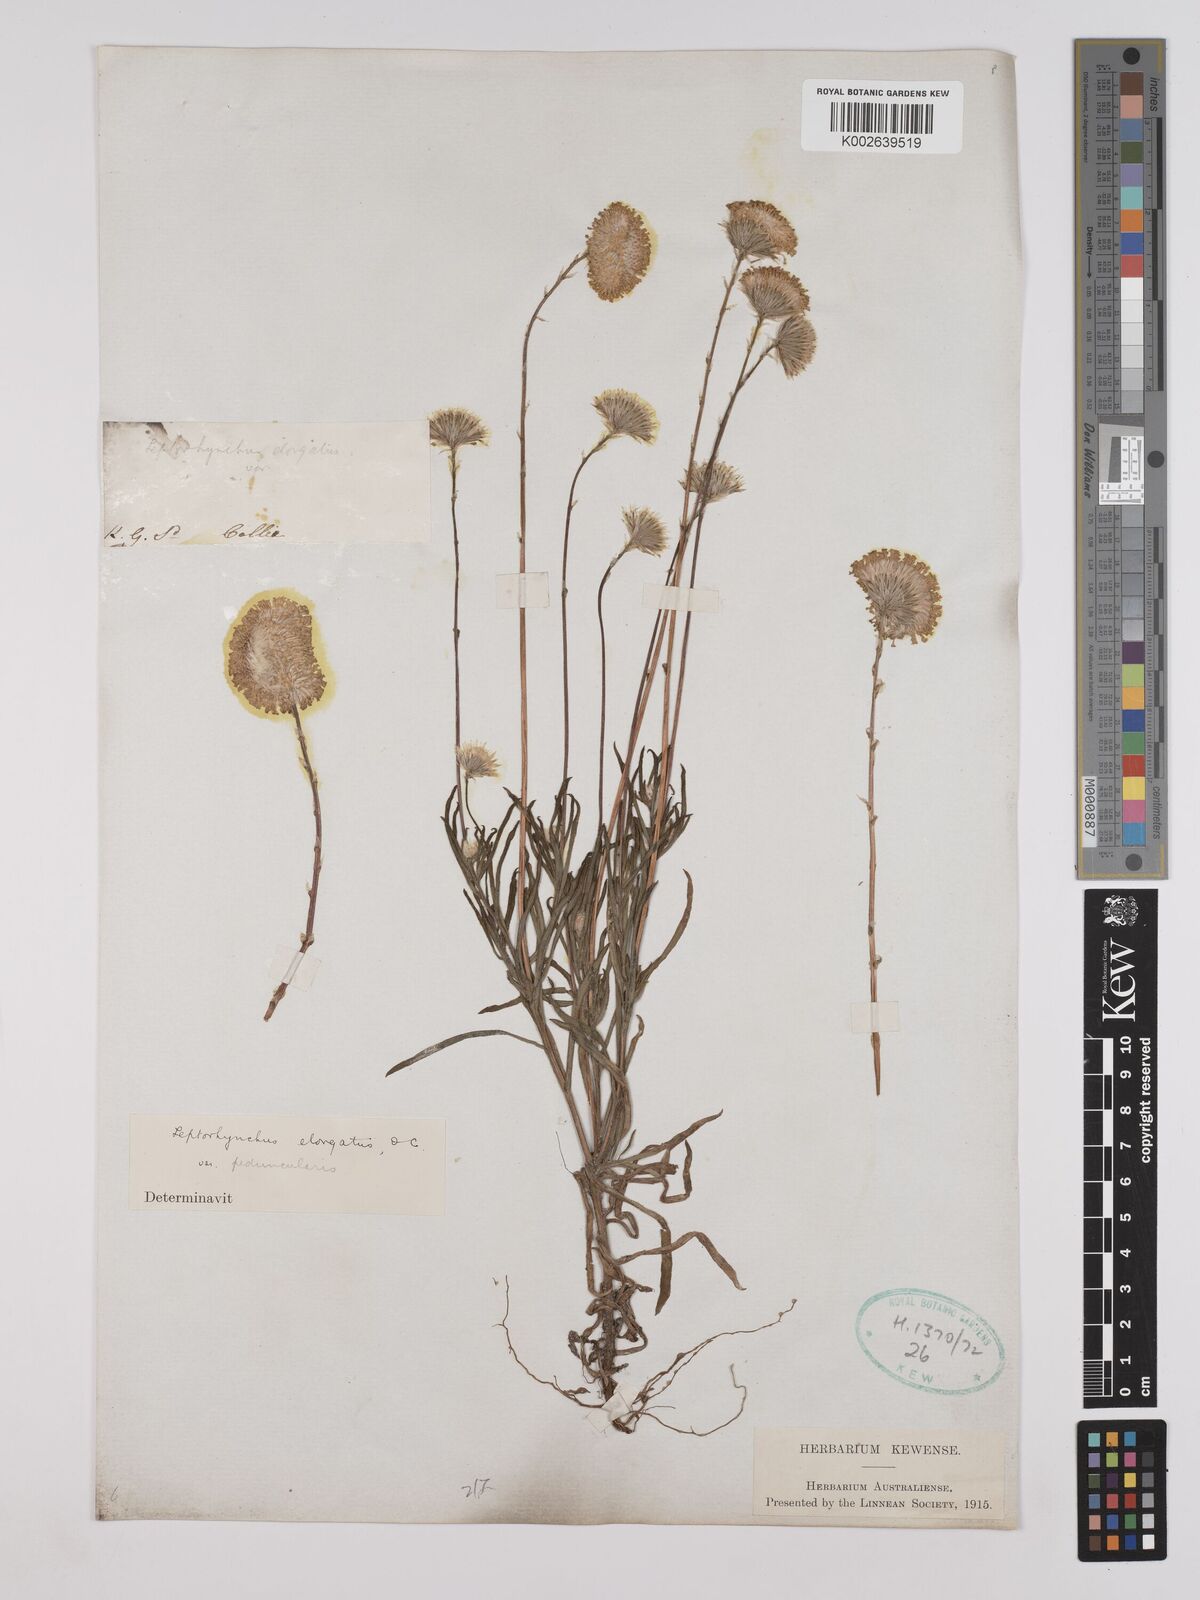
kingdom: Plantae
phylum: Tracheophyta
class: Magnoliopsida
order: Asterales
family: Asteraceae
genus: Leptorhynchos
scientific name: Leptorhynchos elongatus
